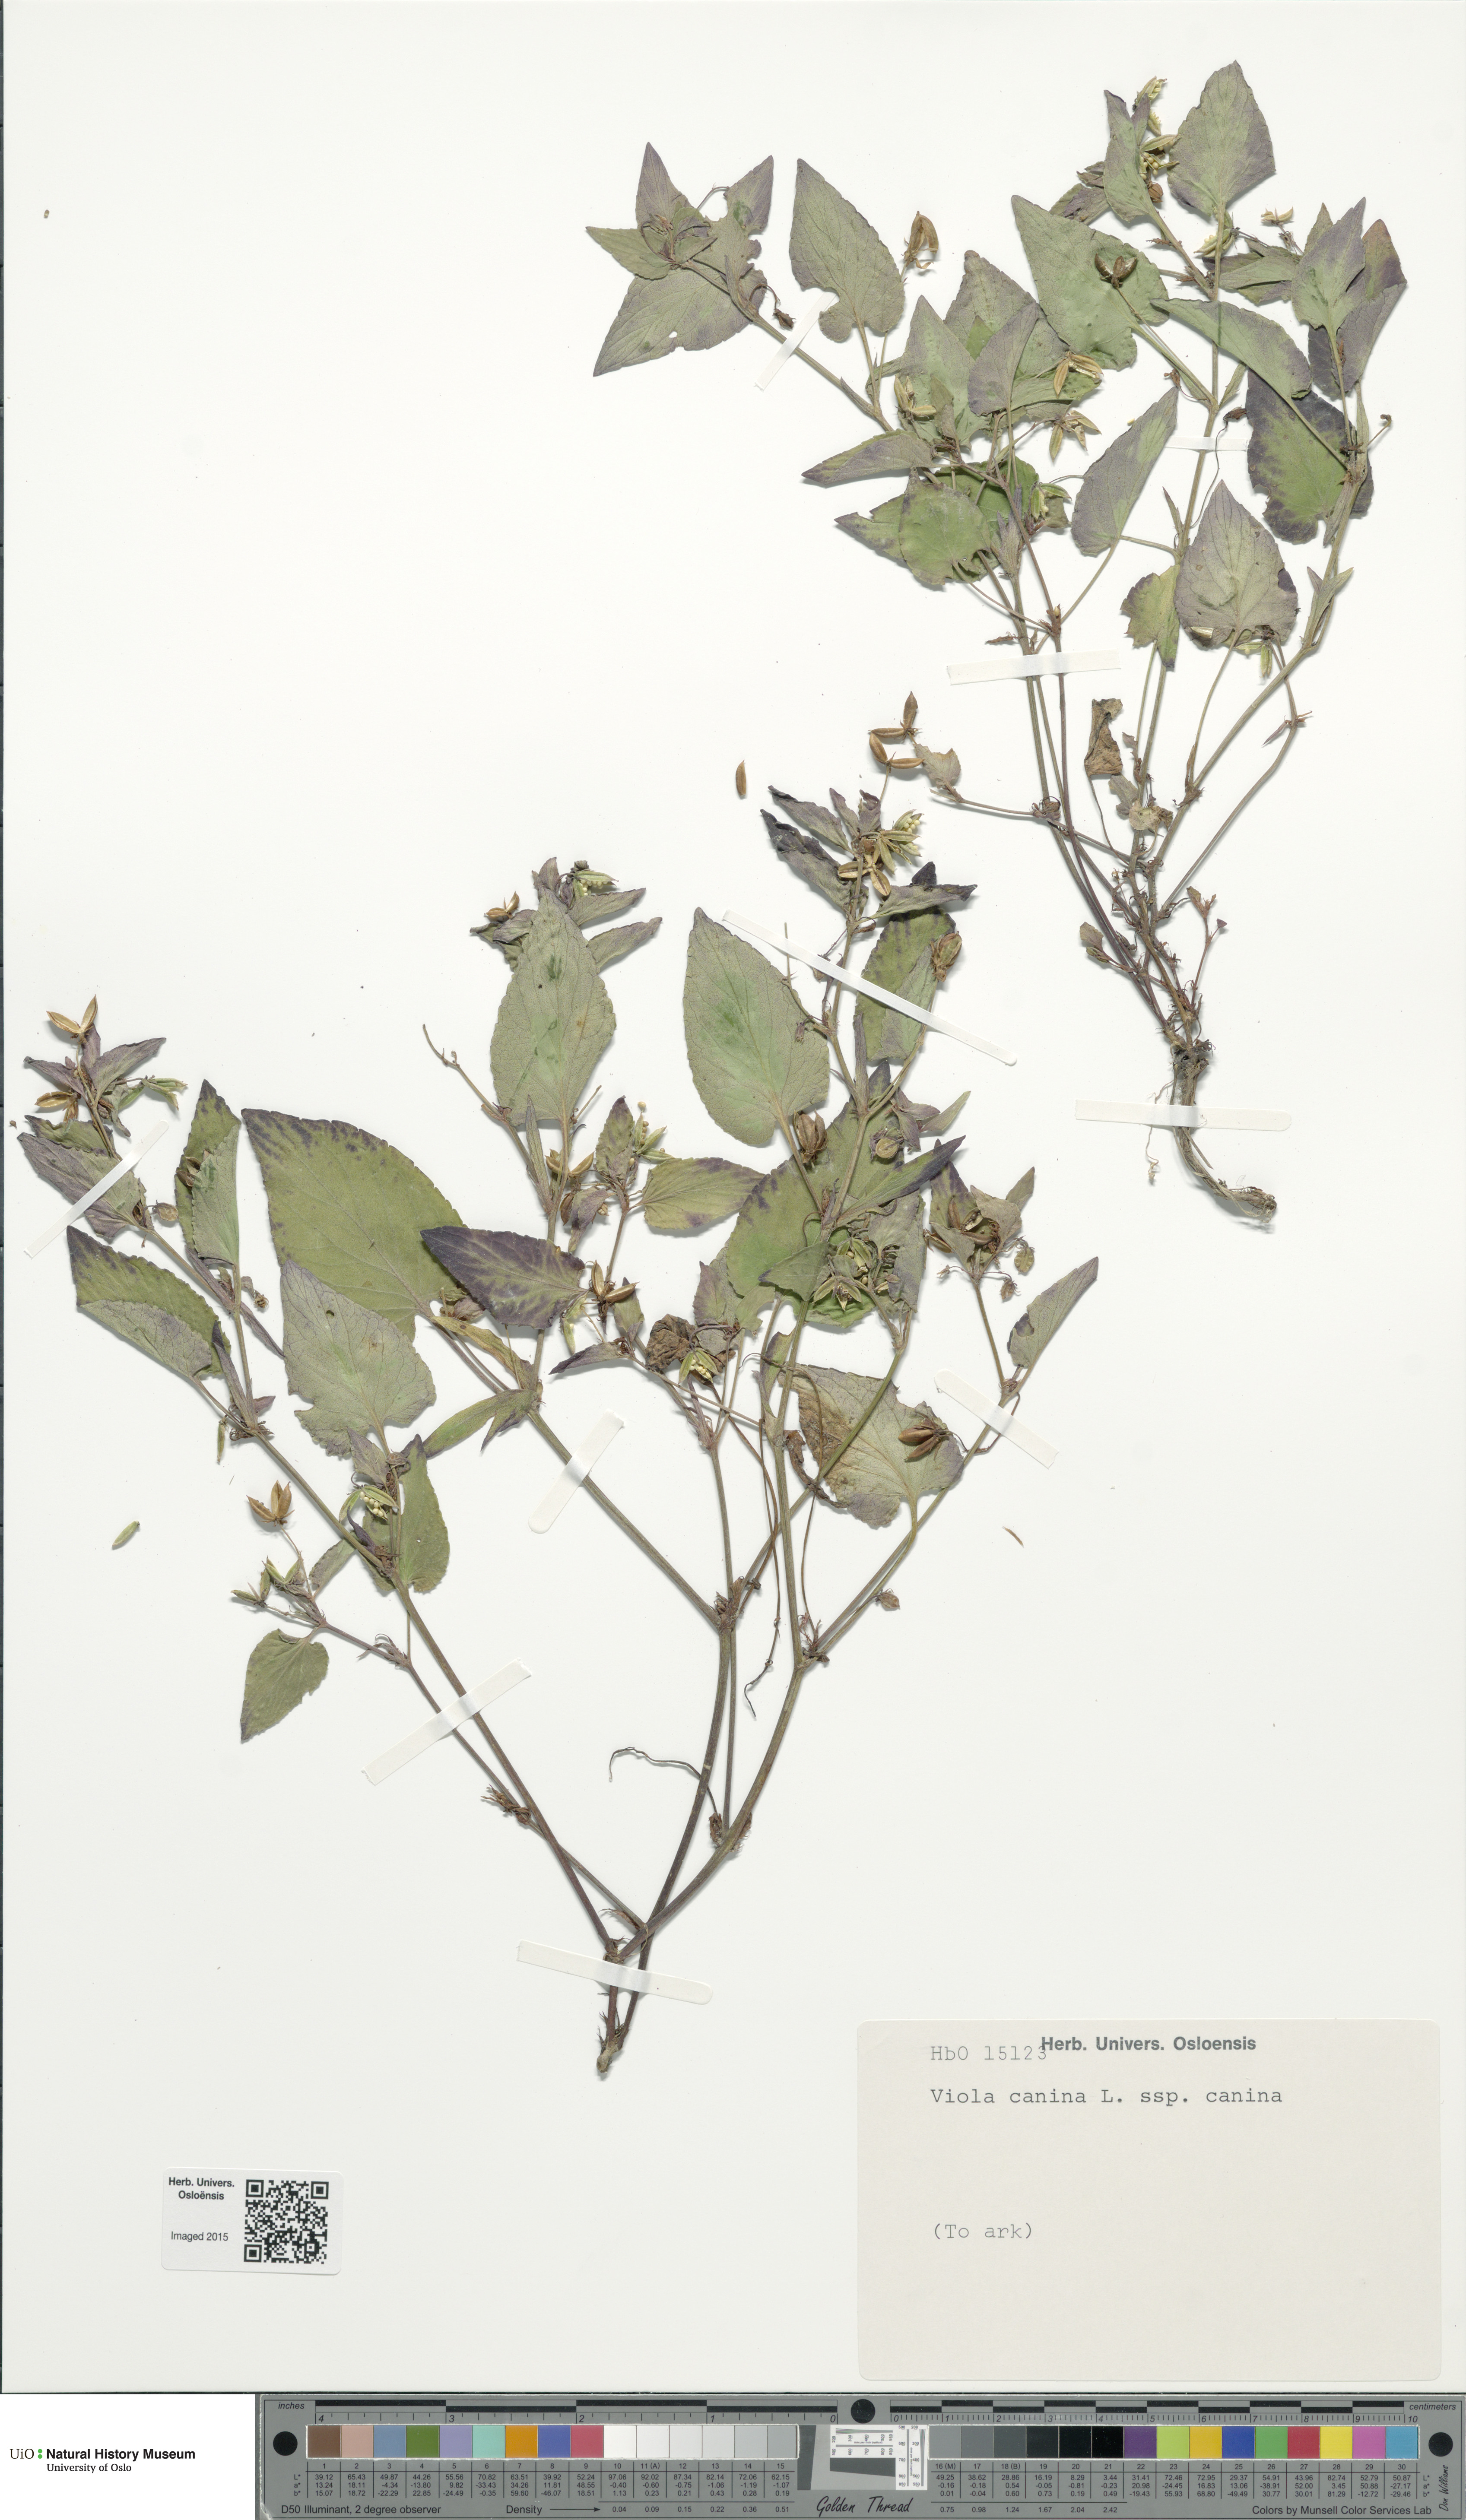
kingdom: Plantae
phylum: Tracheophyta
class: Magnoliopsida
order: Malpighiales
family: Violaceae
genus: Viola
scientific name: Viola canina
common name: Heath dog-violet
